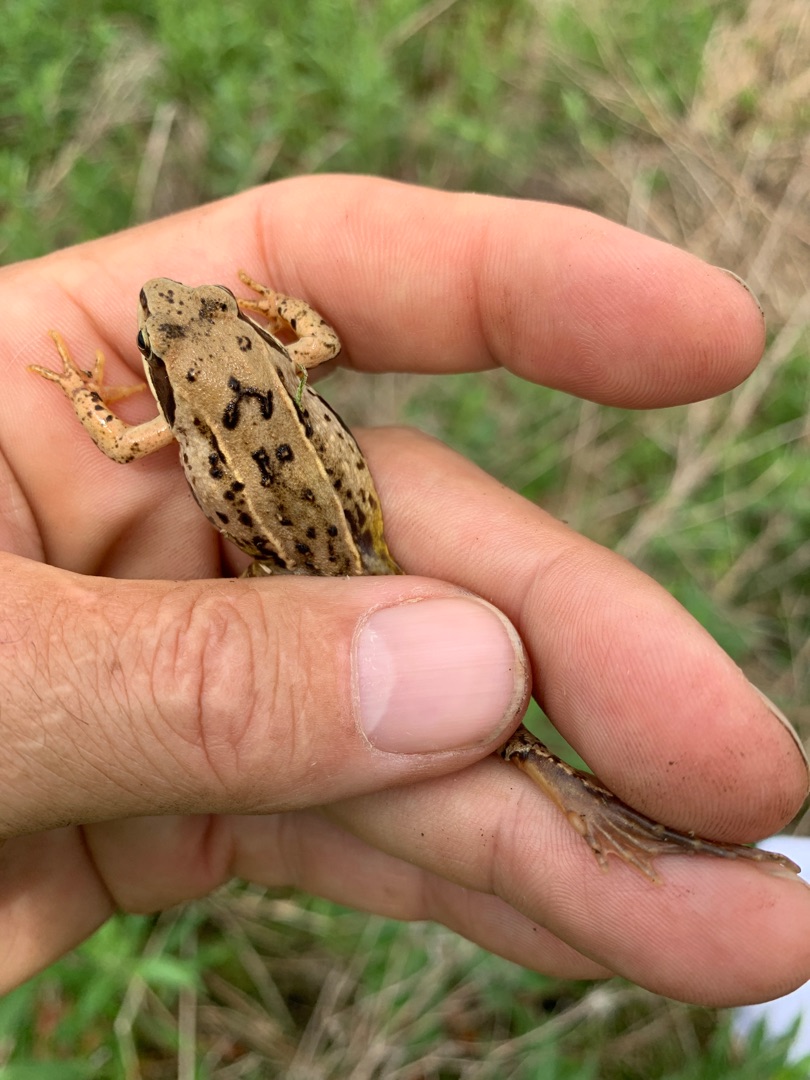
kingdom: Animalia
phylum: Chordata
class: Amphibia
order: Anura
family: Ranidae
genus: Rana
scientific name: Rana arvalis
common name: Spidssnudet frø
